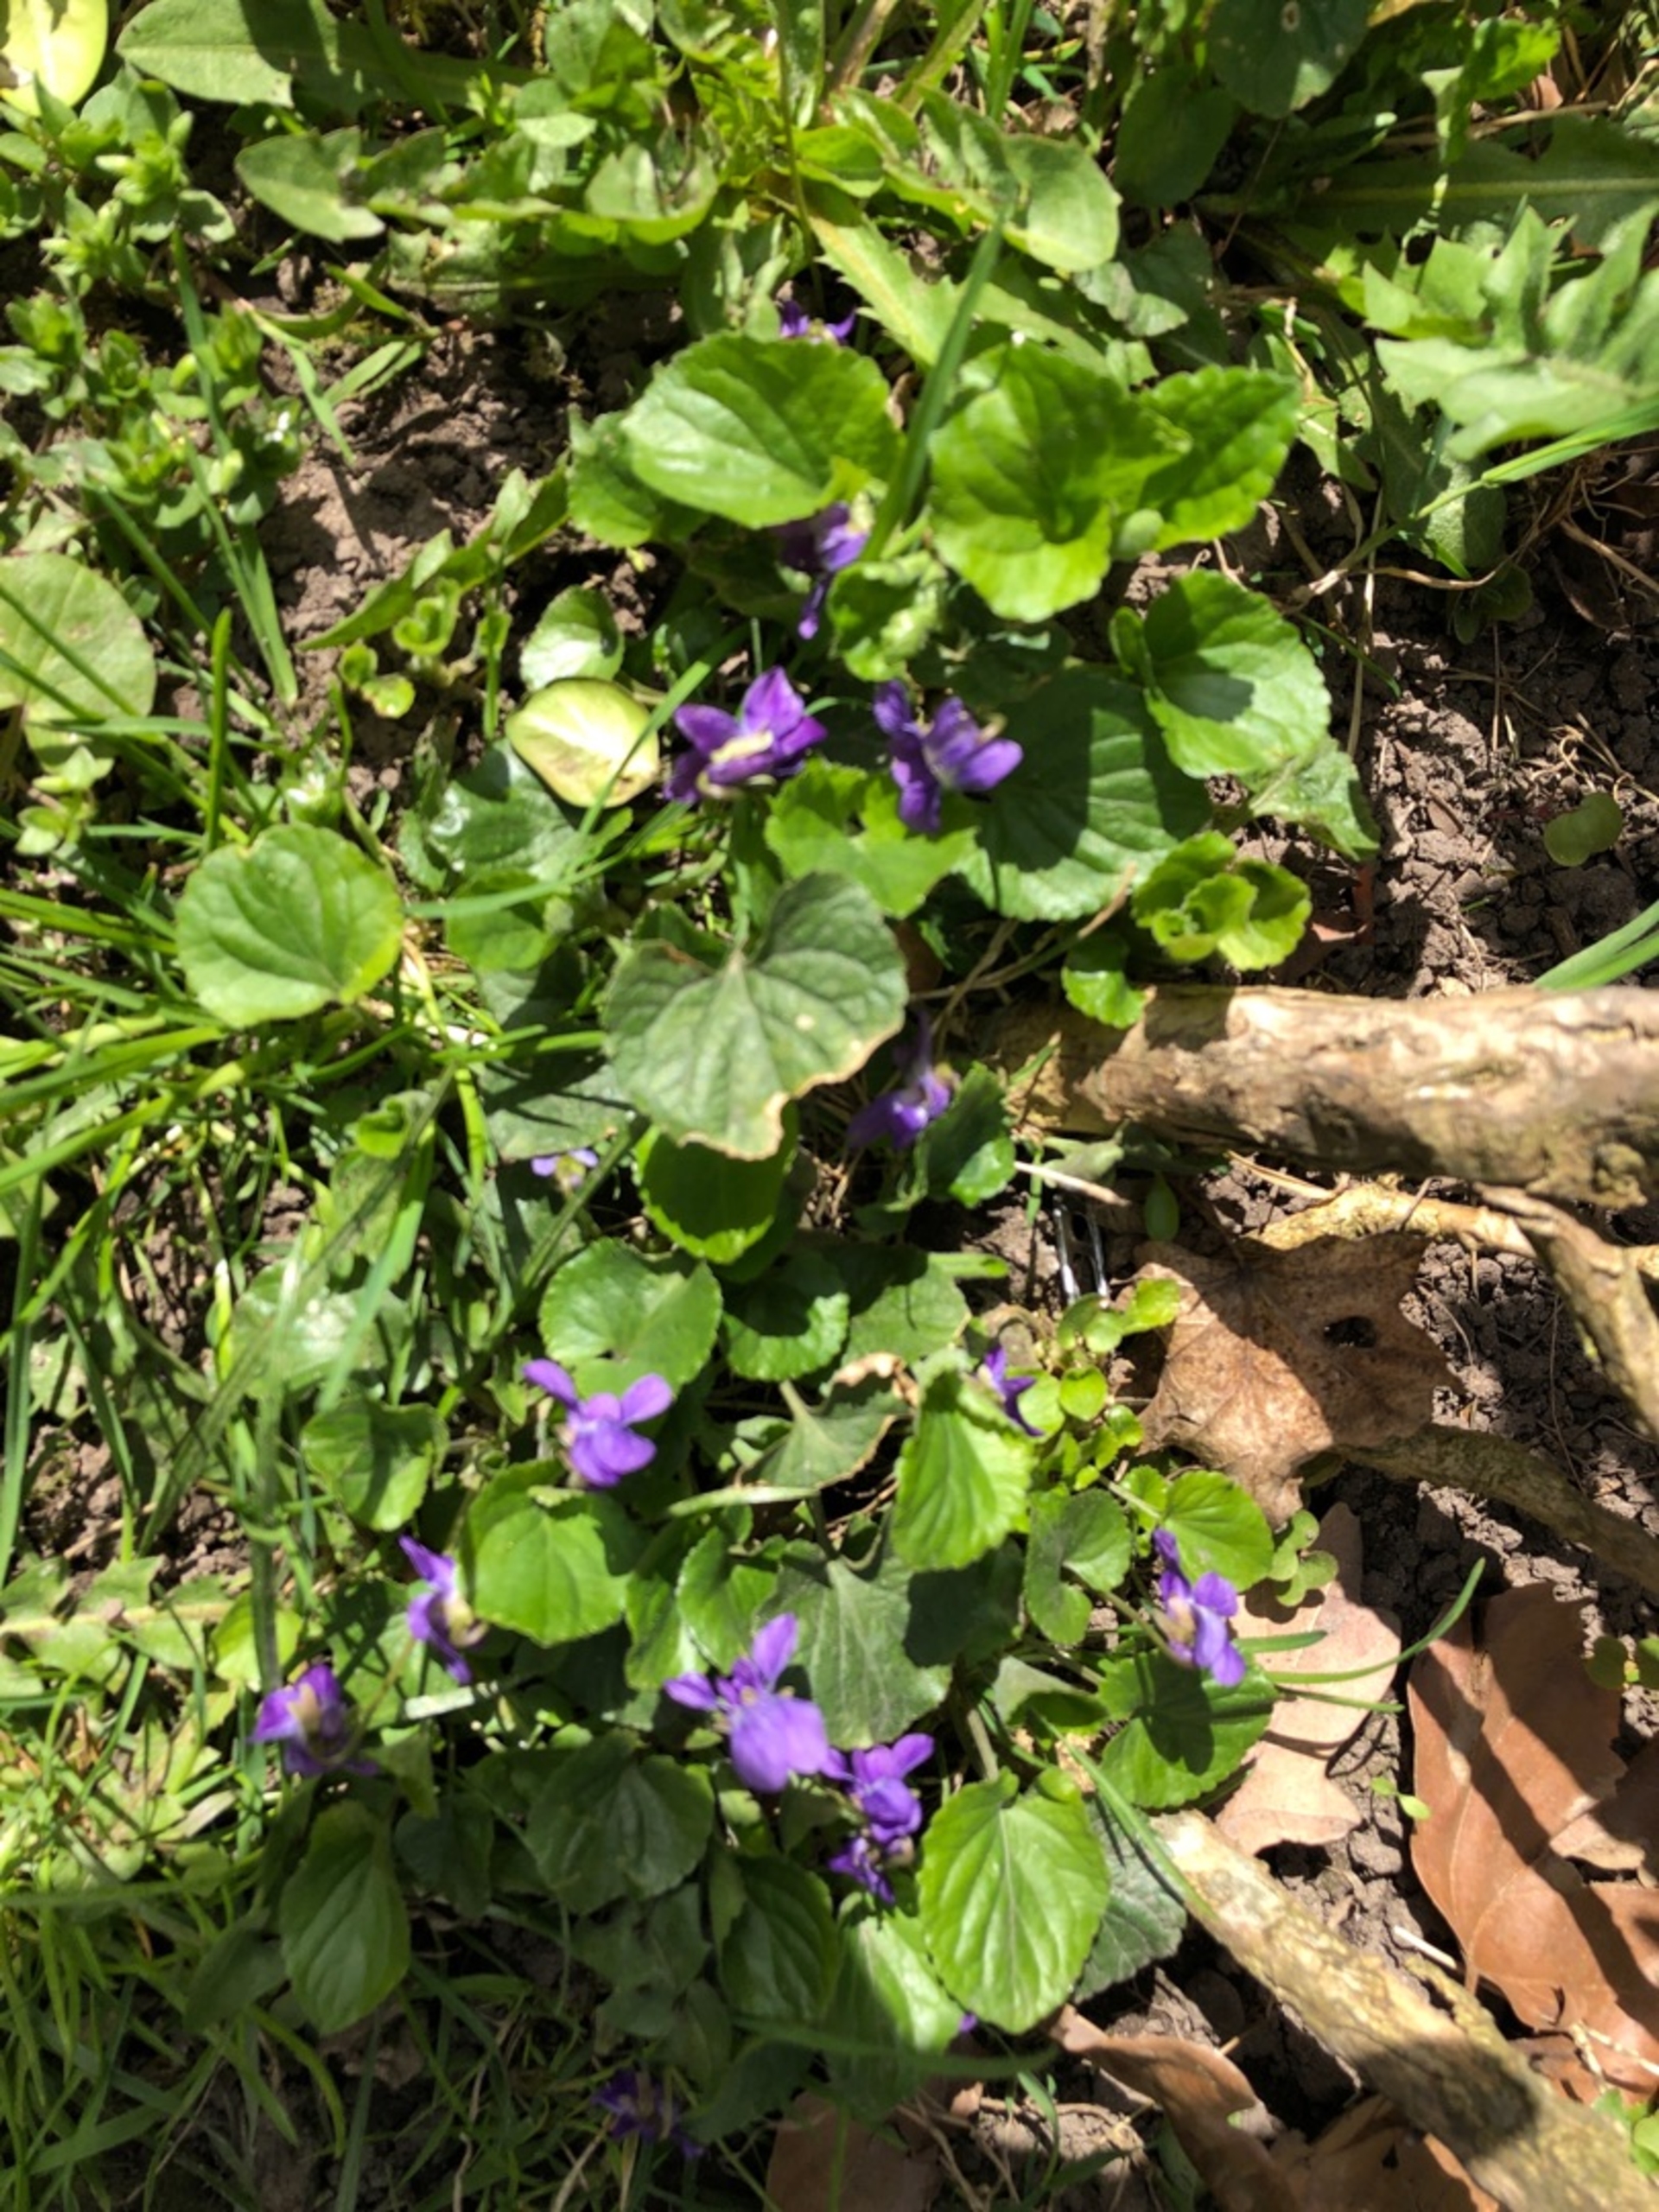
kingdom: Plantae
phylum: Tracheophyta
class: Magnoliopsida
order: Malpighiales
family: Violaceae
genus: Viola
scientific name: Viola odorata
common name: Marts-viol
